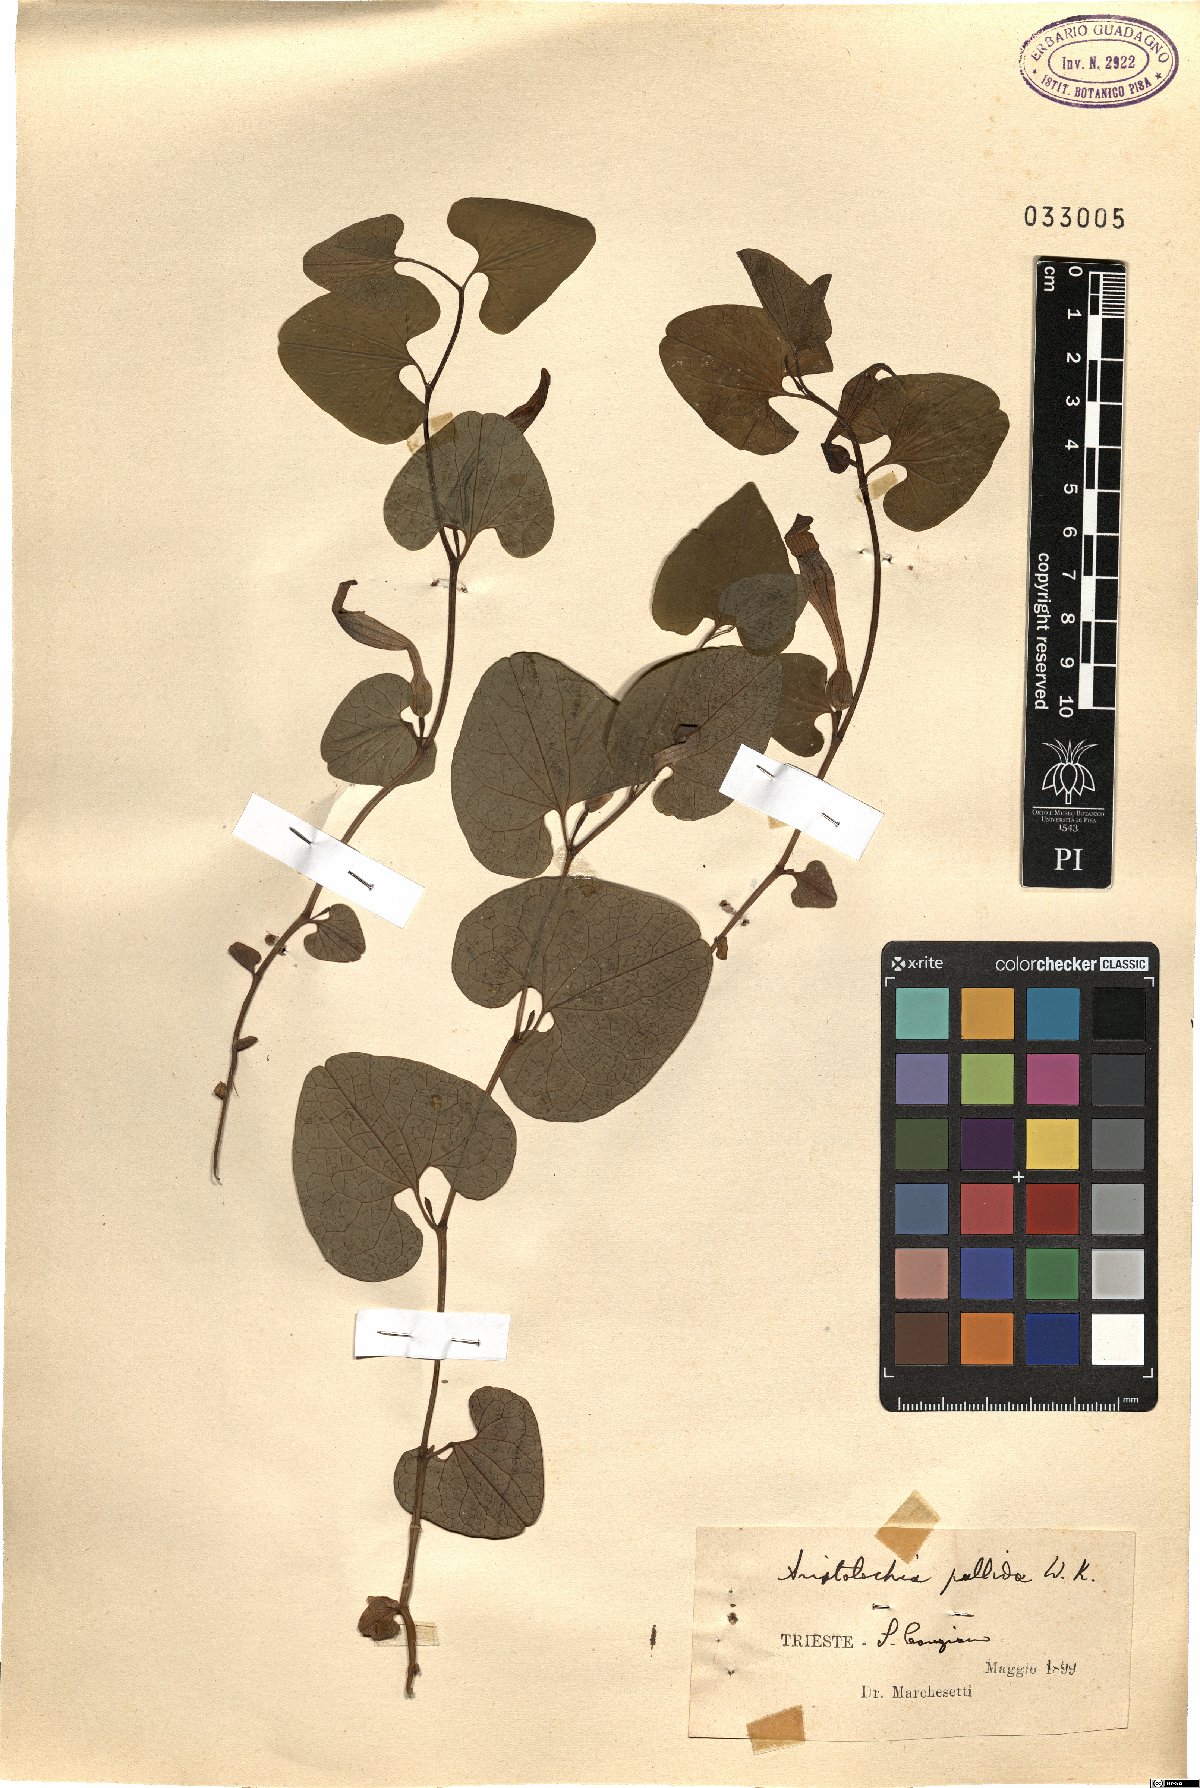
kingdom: Plantae
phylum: Tracheophyta
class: Magnoliopsida
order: Piperales
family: Aristolochiaceae
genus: Aristolochia
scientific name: Aristolochia pallida
